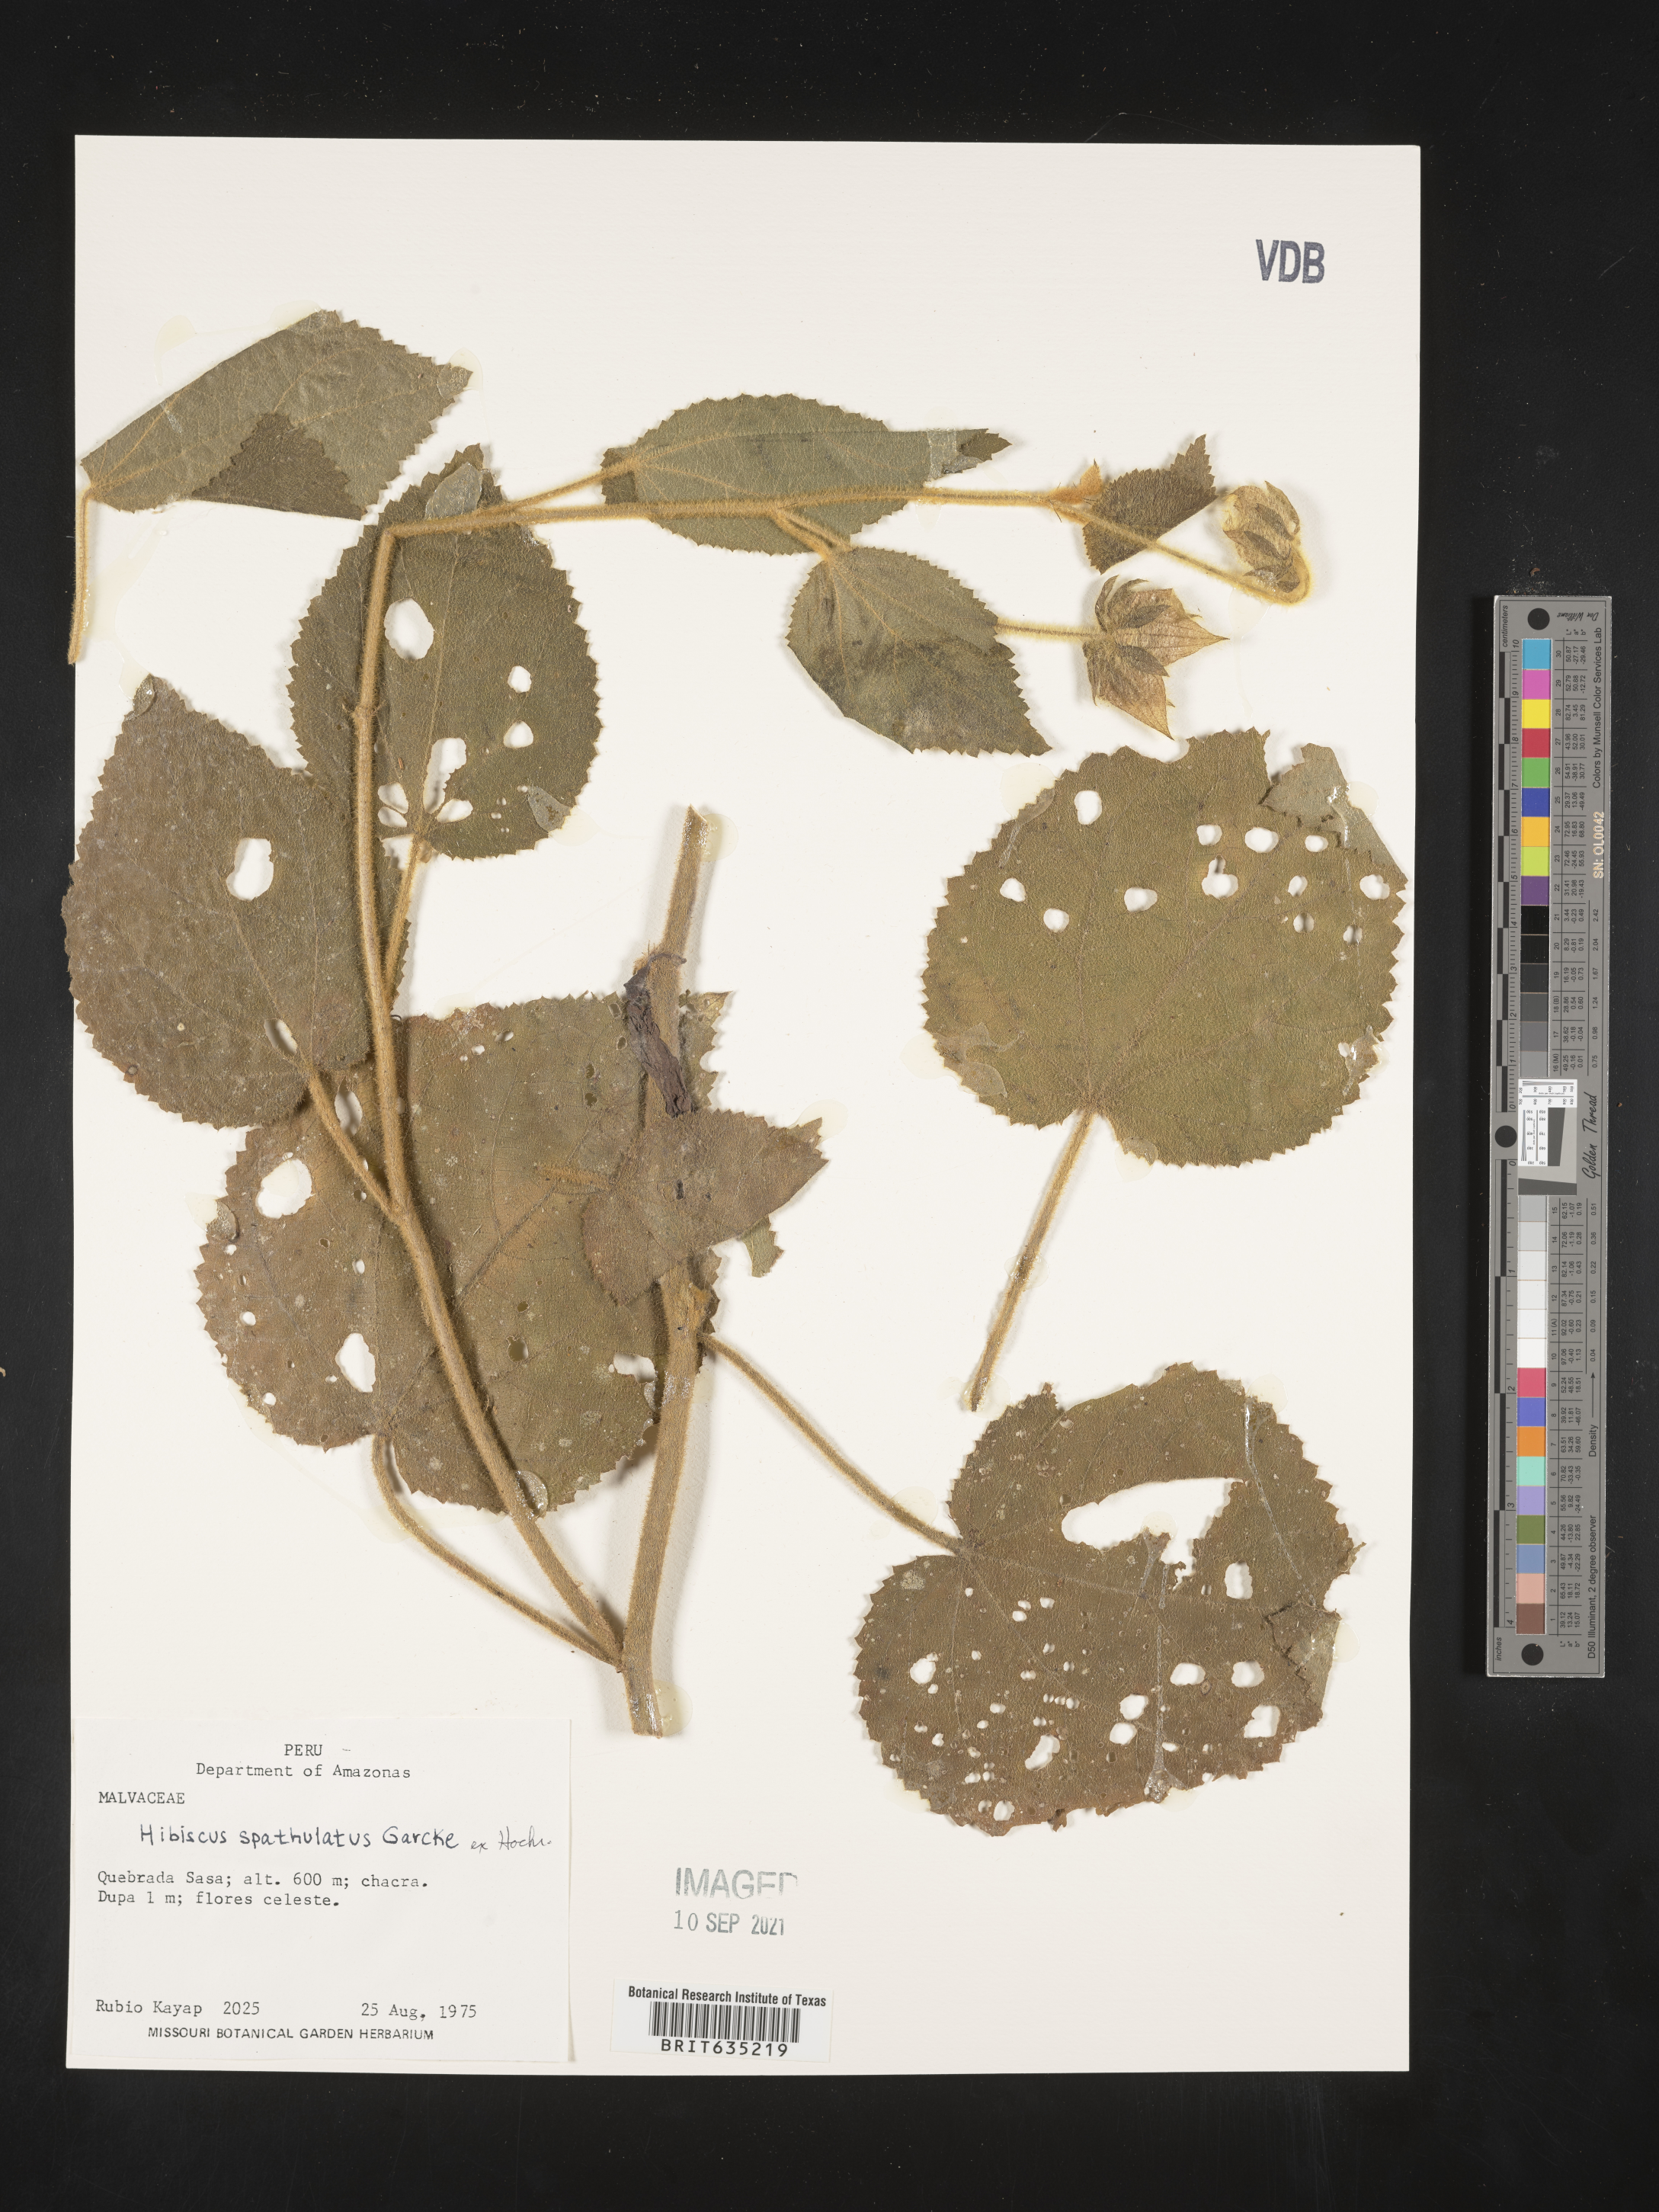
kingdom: Plantae
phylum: Tracheophyta
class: Magnoliopsida
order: Malvales
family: Malvaceae
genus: Hibiscus
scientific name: Hibiscus
